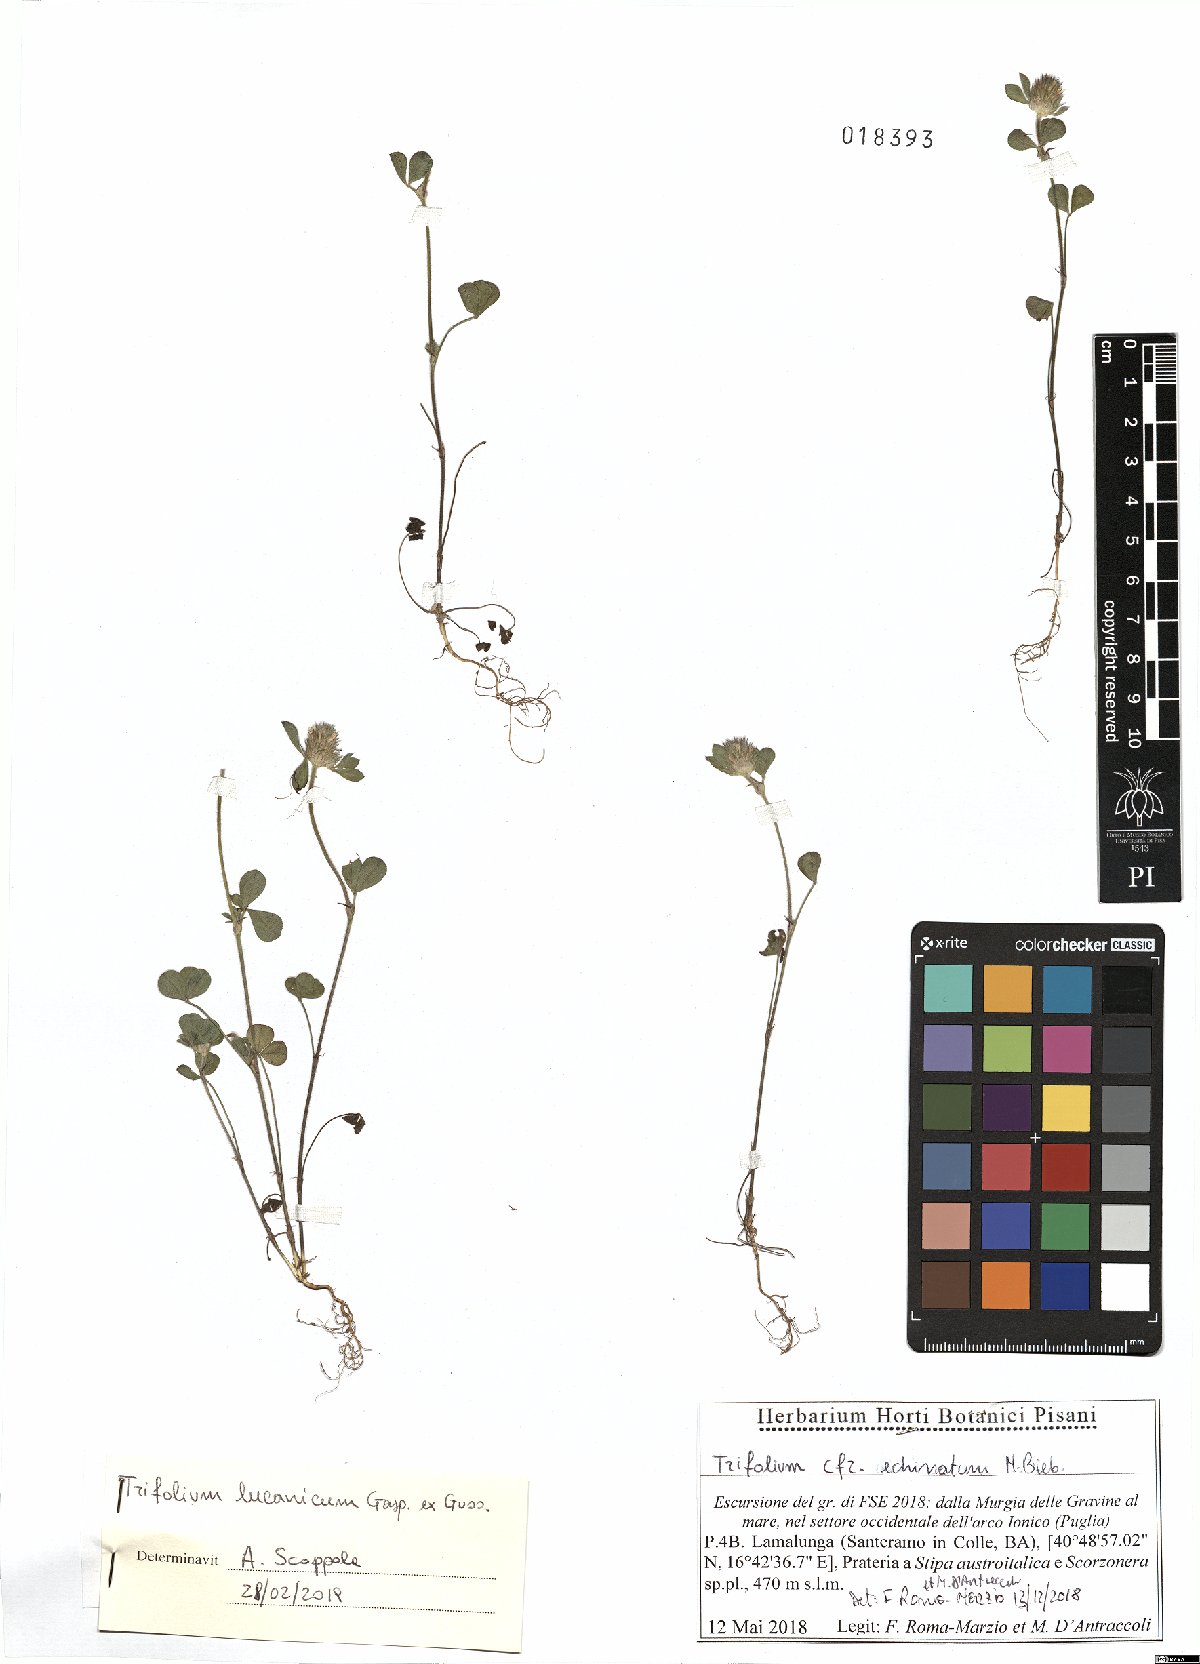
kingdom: Plantae
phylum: Tracheophyta
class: Magnoliopsida
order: Fabales
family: Fabaceae
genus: Trifolium
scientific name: Trifolium lucanicum
